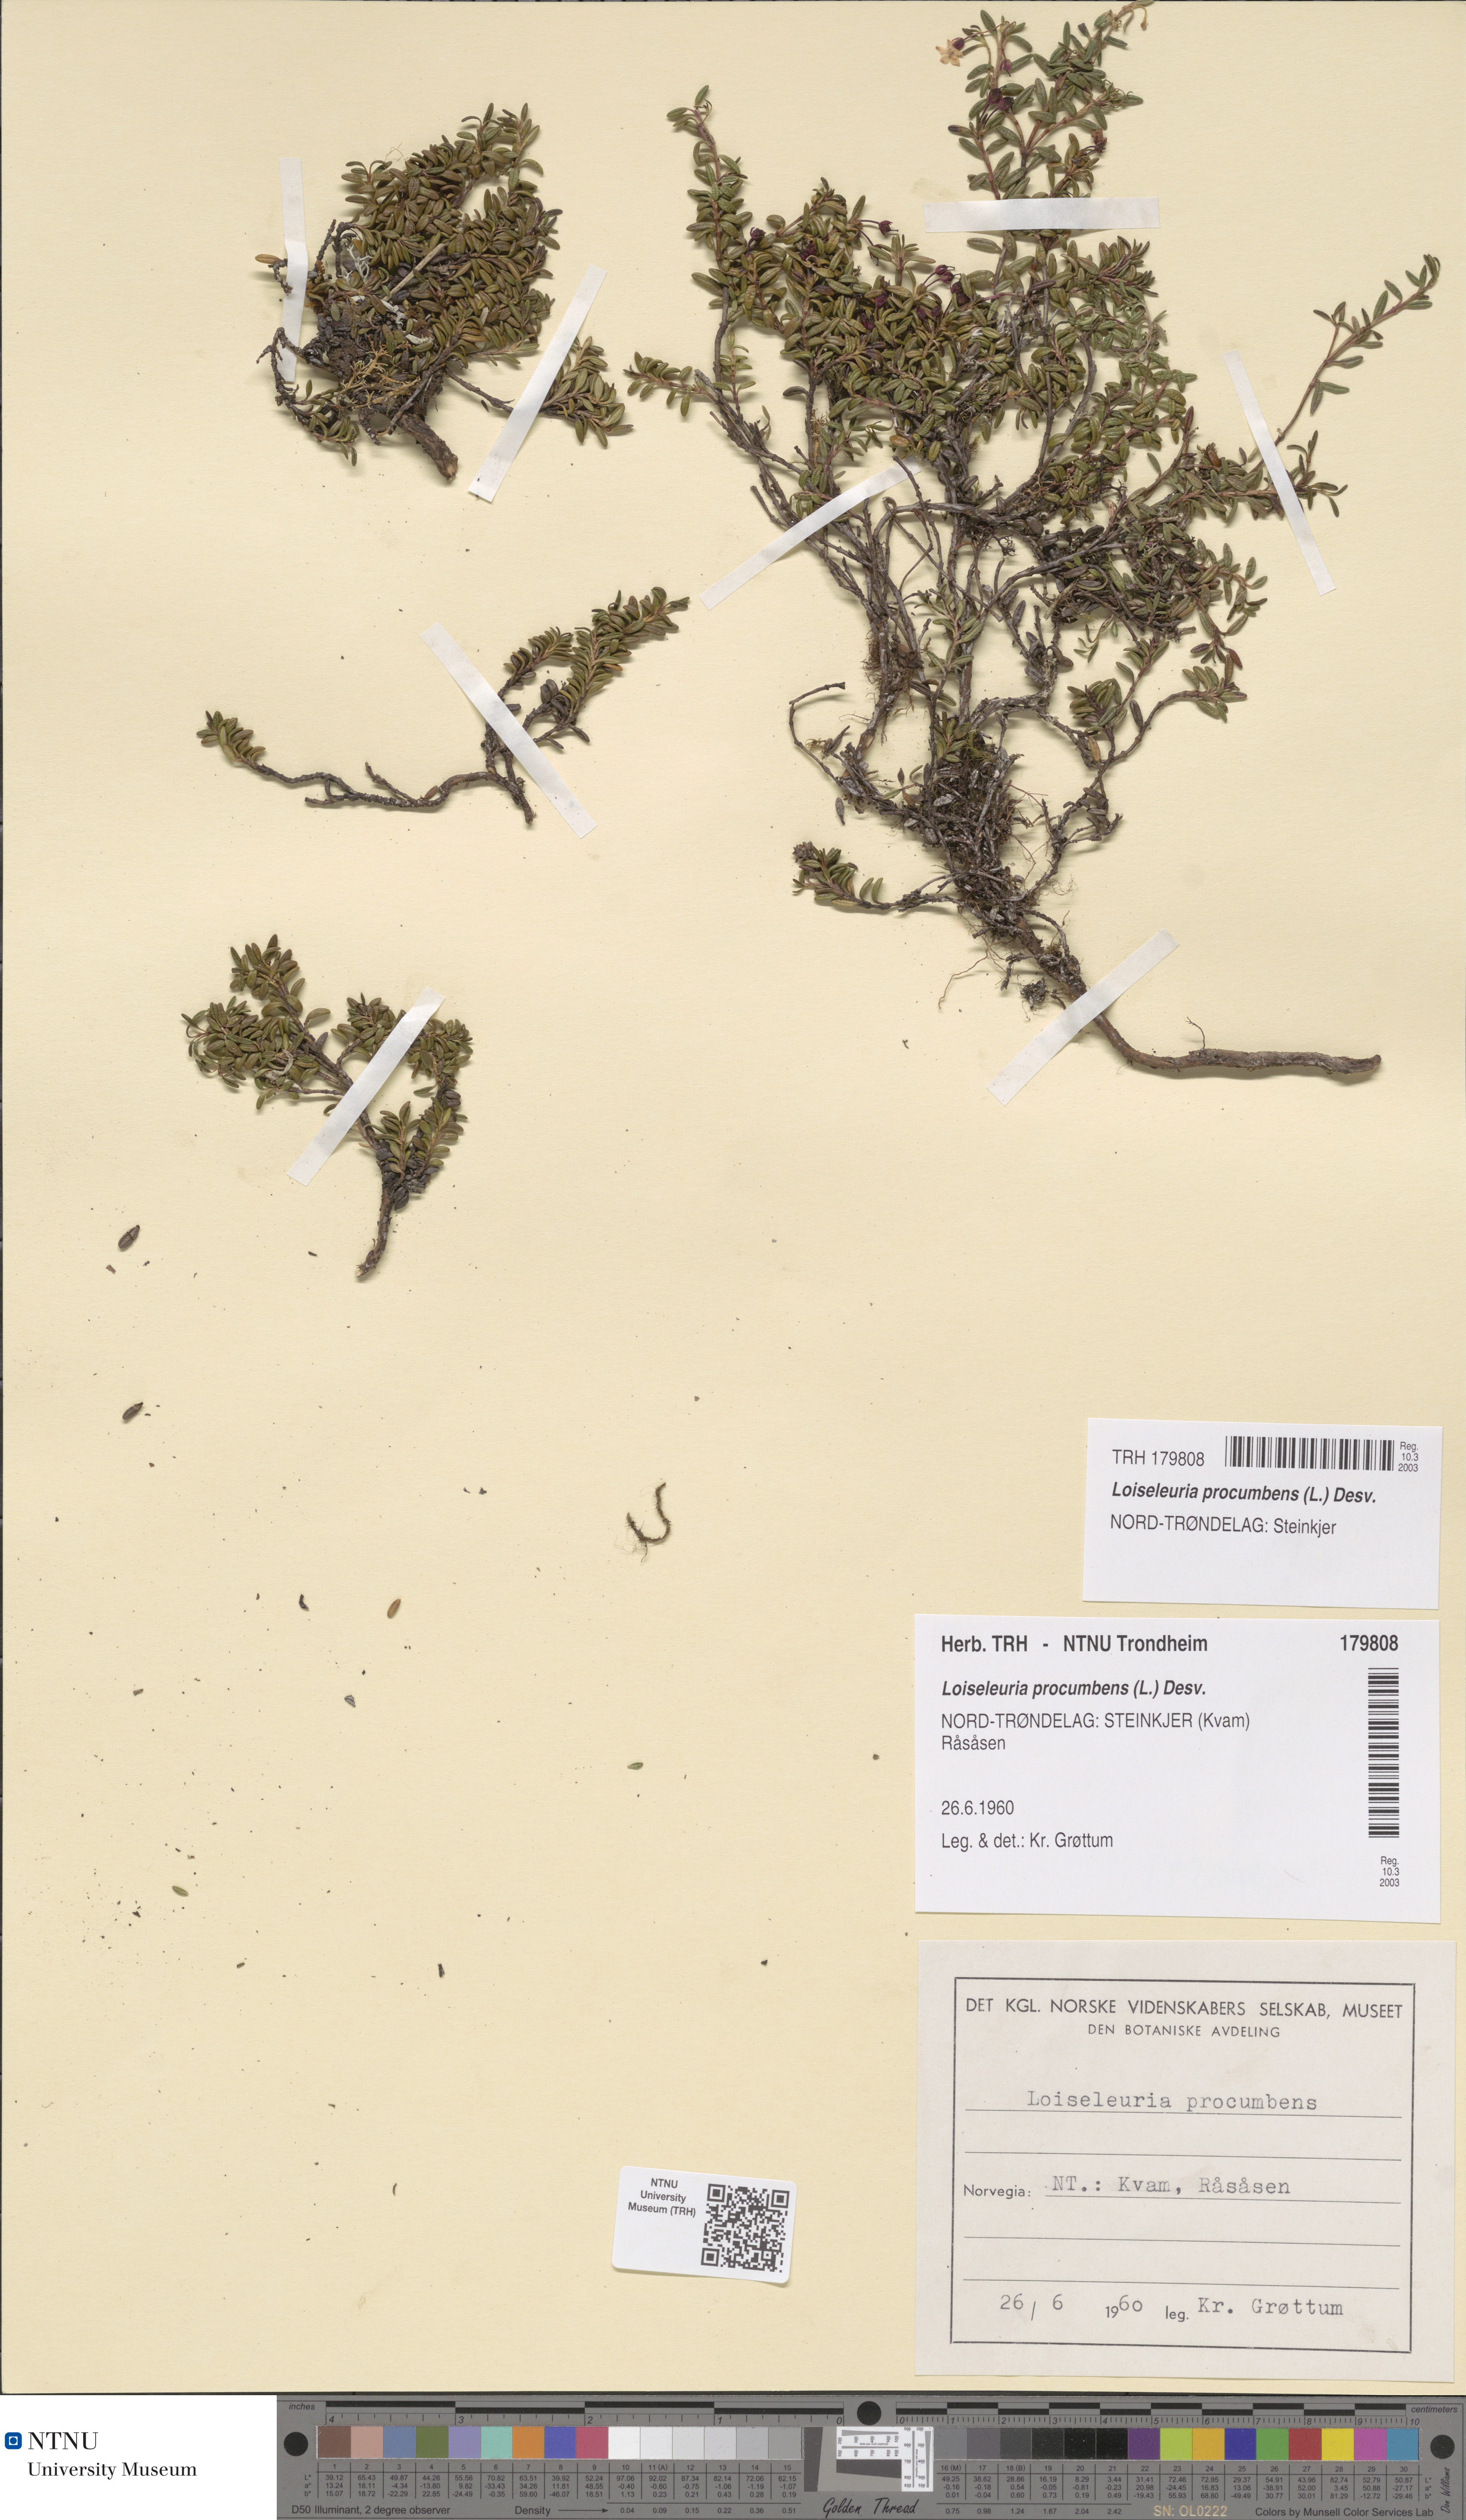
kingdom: Plantae
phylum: Tracheophyta
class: Magnoliopsida
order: Ericales
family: Ericaceae
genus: Kalmia
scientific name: Kalmia procumbens
